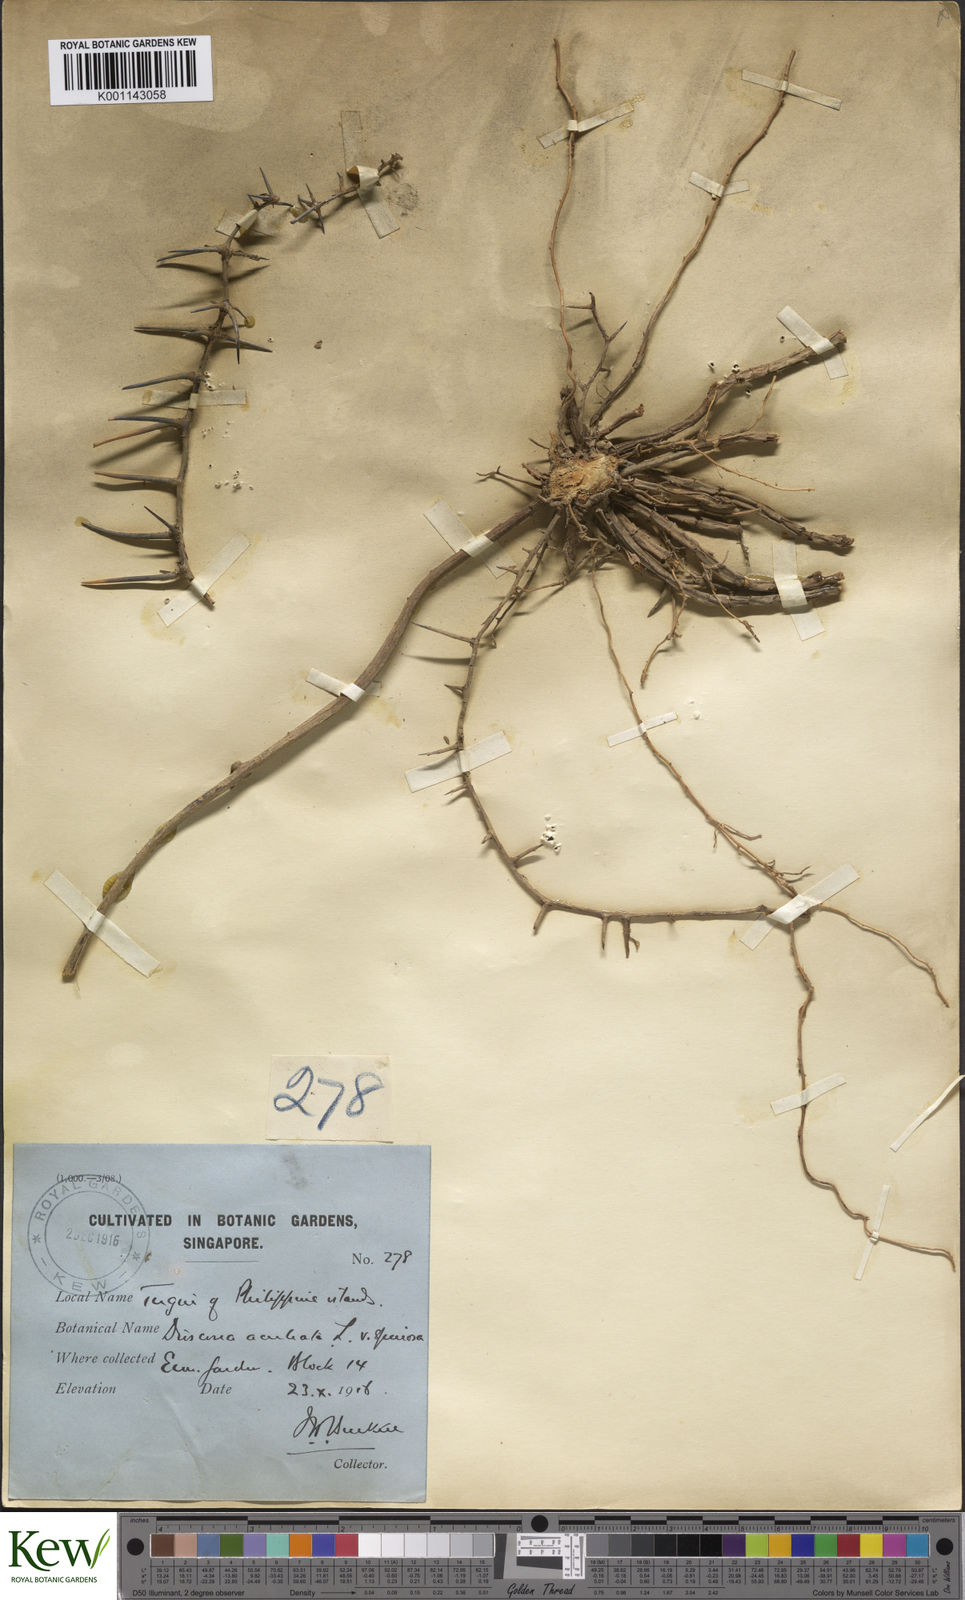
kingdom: Plantae
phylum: Tracheophyta
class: Liliopsida
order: Dioscoreales
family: Dioscoreaceae
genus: Dioscorea
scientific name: Dioscorea esculenta
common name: Chinese yam
